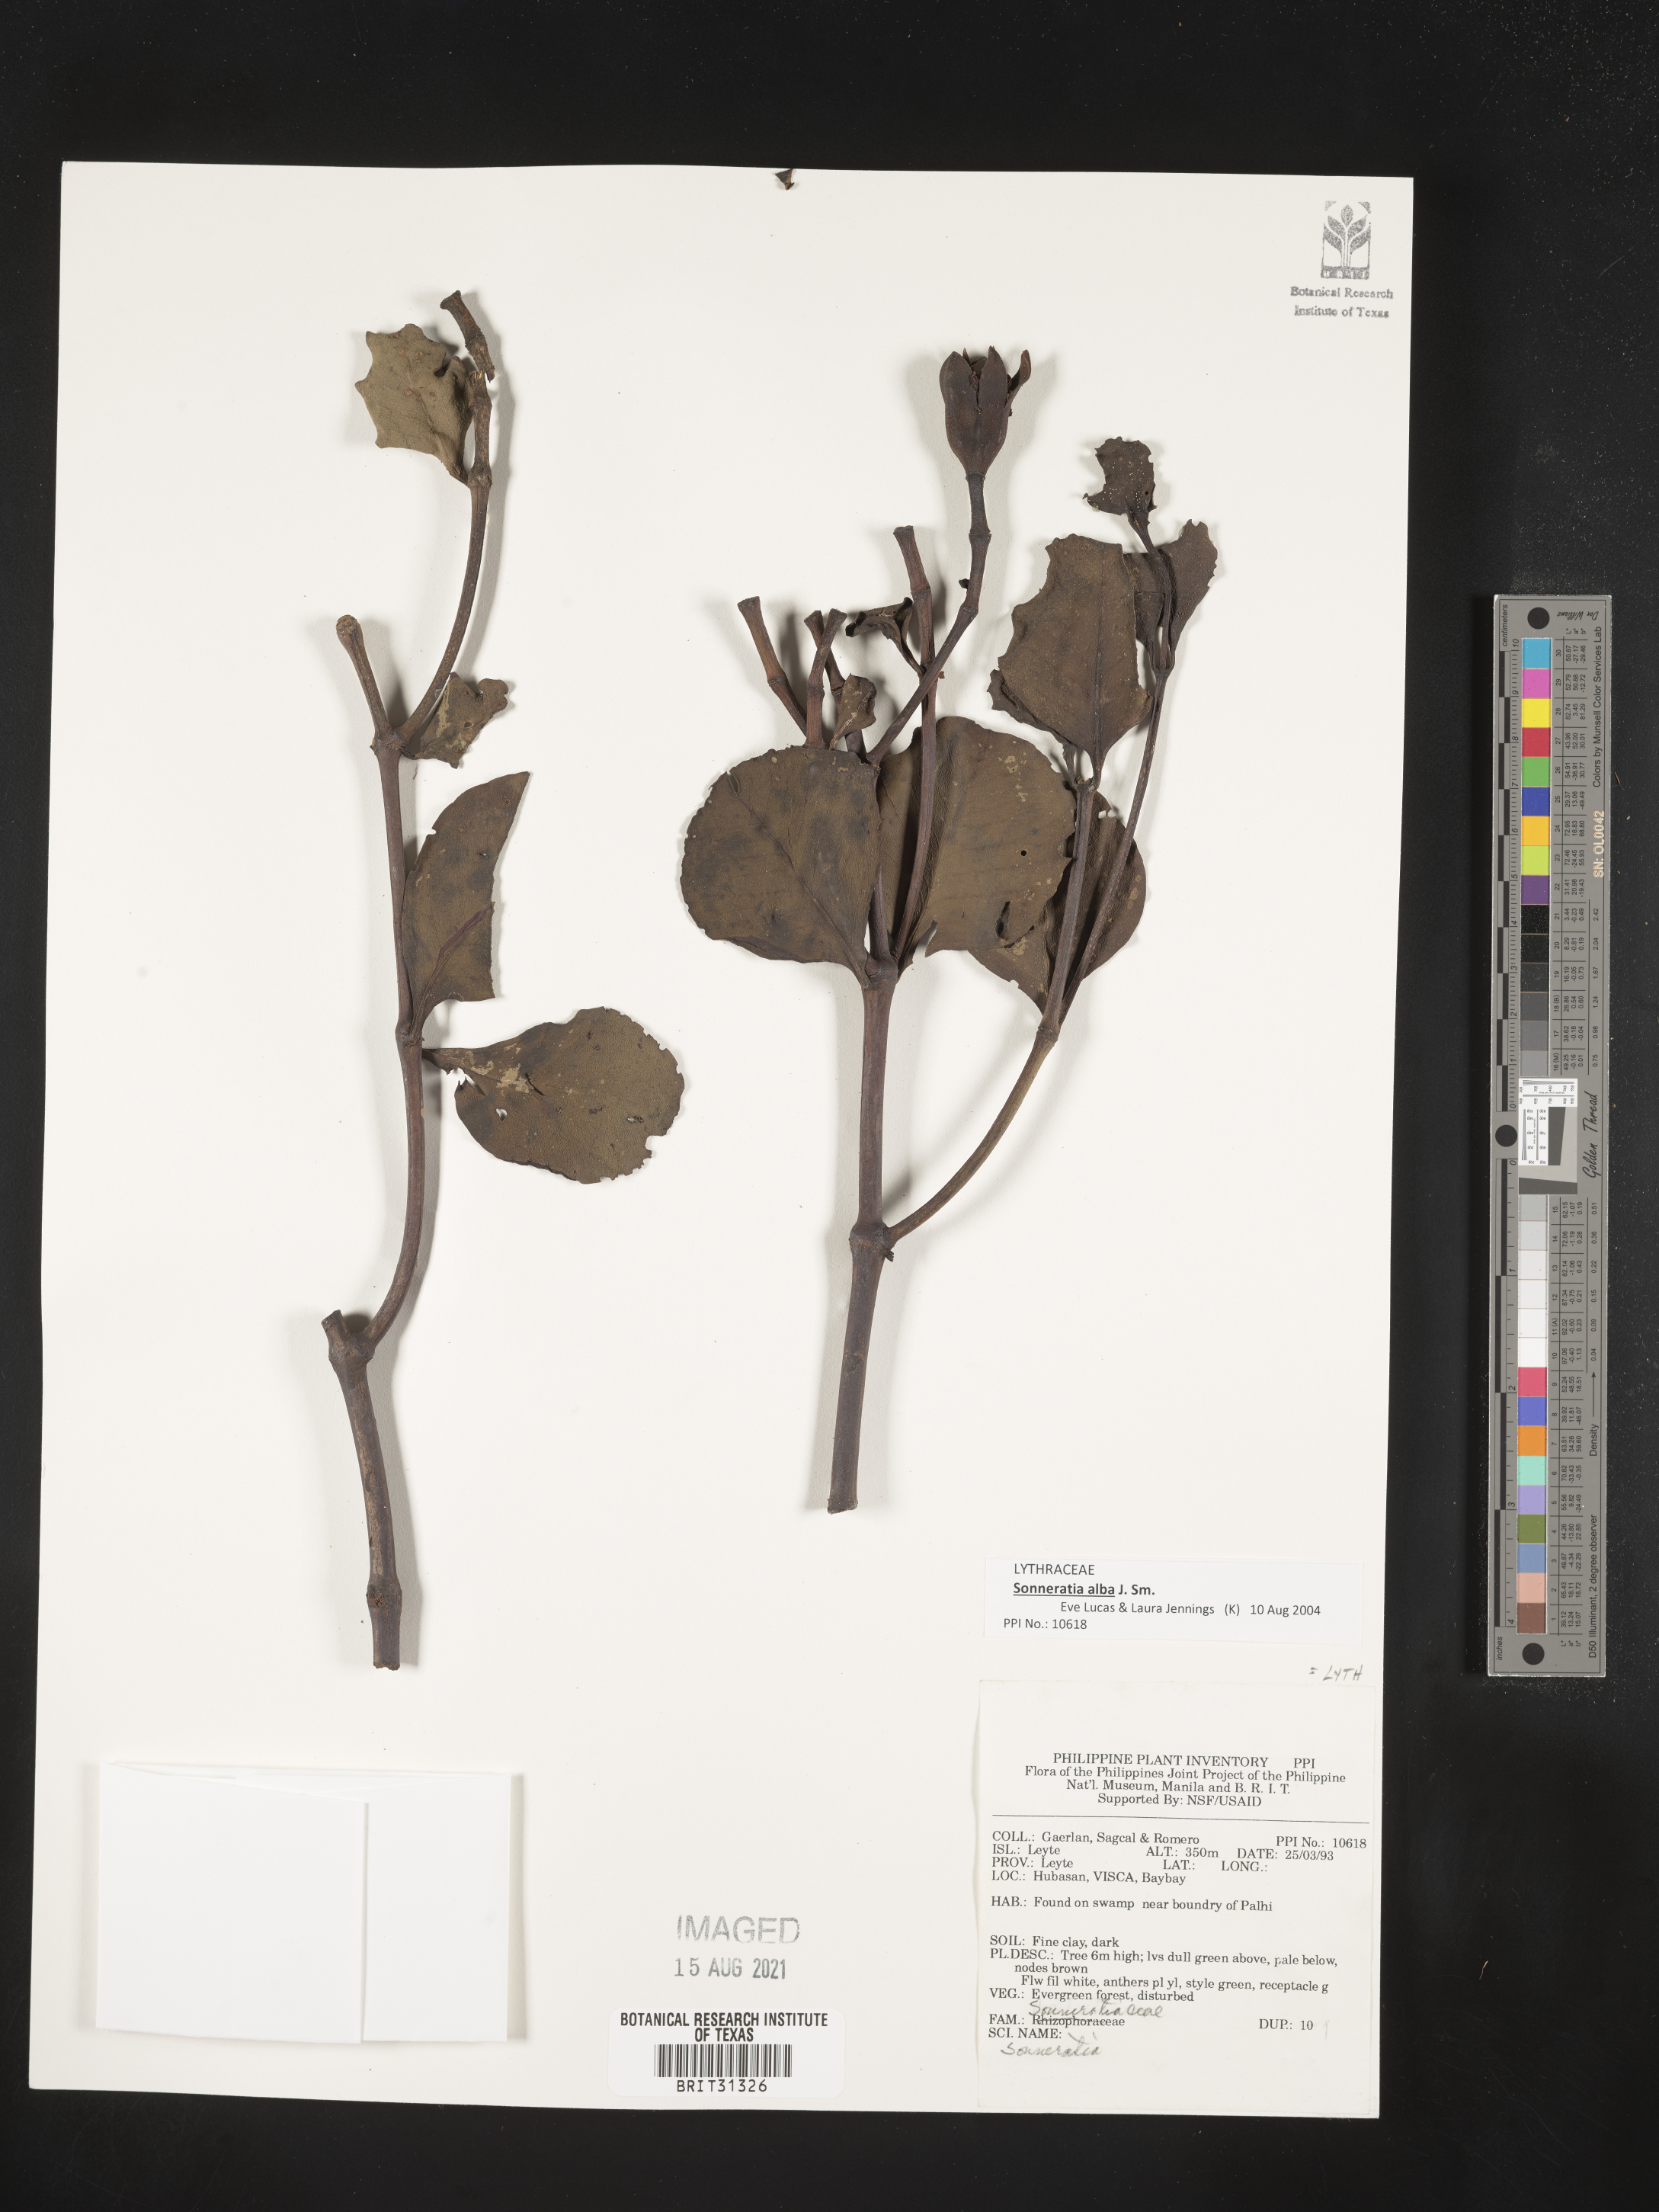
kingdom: Plantae
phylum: Tracheophyta
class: Magnoliopsida
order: Myrtales
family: Lythraceae
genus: Sonneratia
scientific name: Sonneratia
